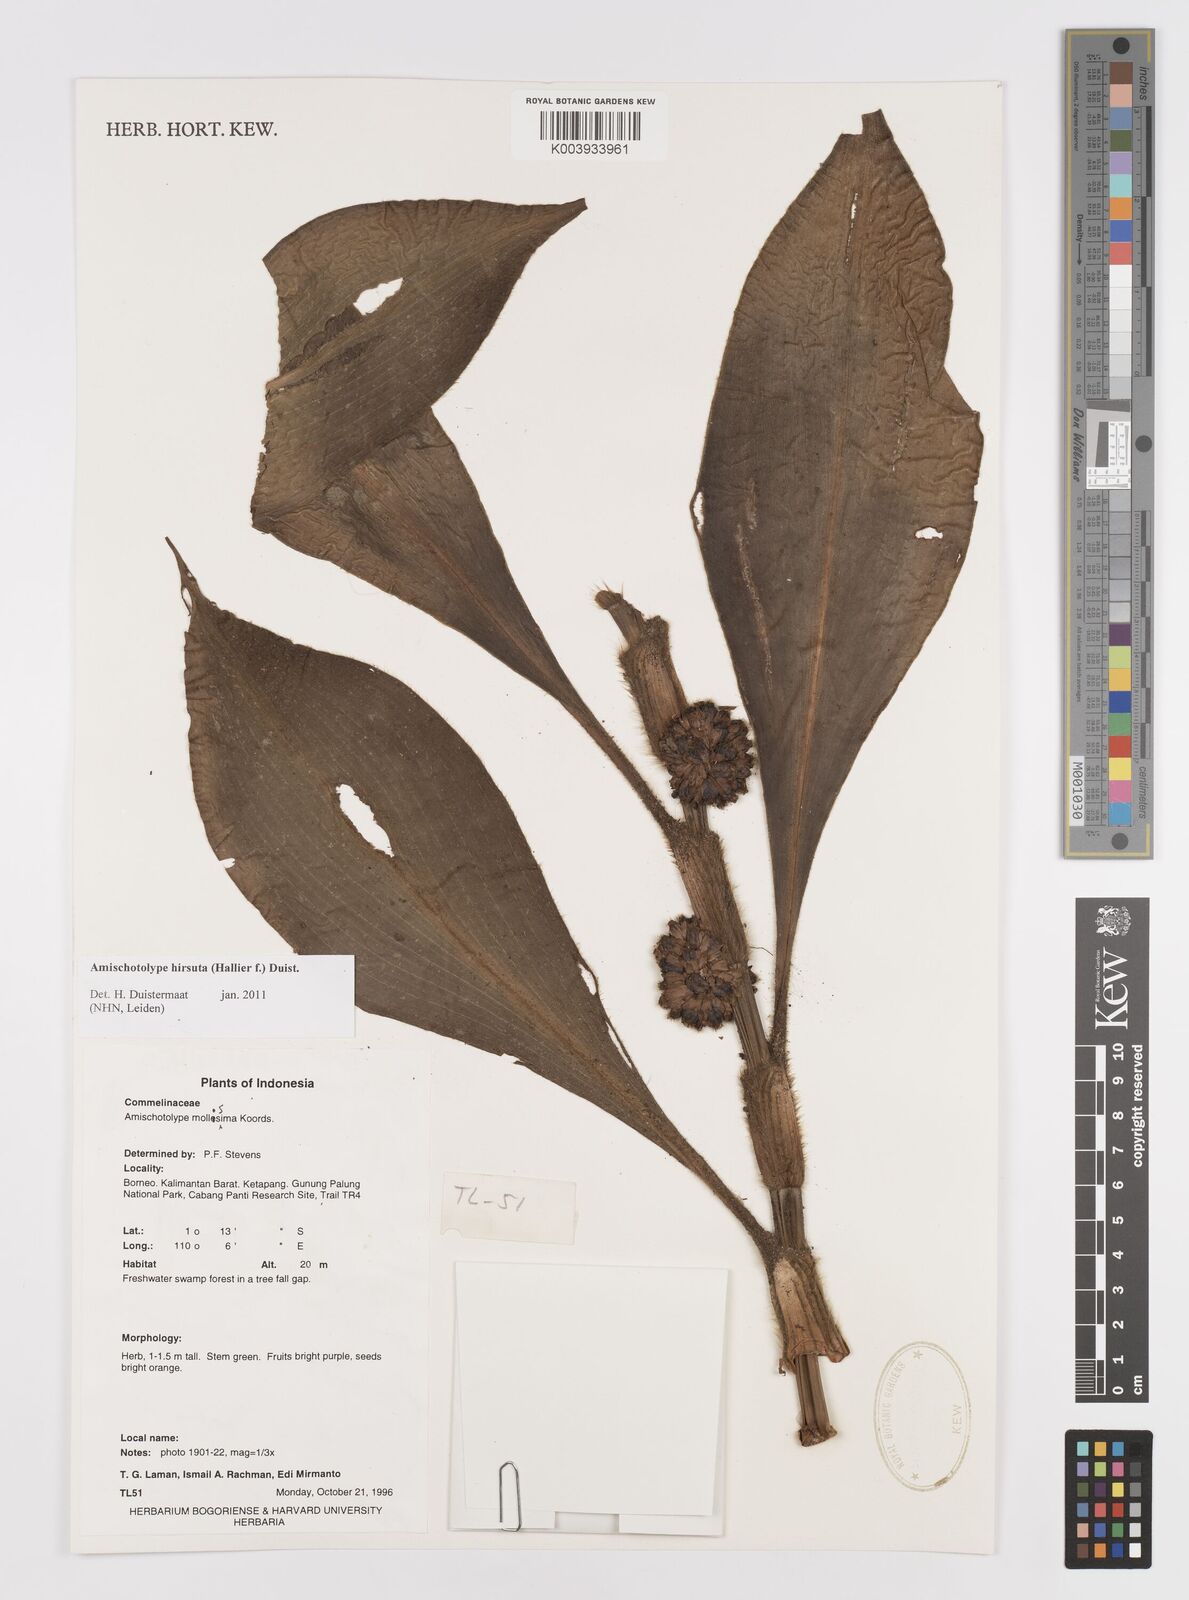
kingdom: Plantae
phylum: Tracheophyta
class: Liliopsida
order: Commelinales
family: Commelinaceae
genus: Amischotolype
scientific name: Amischotolype hirsuta
